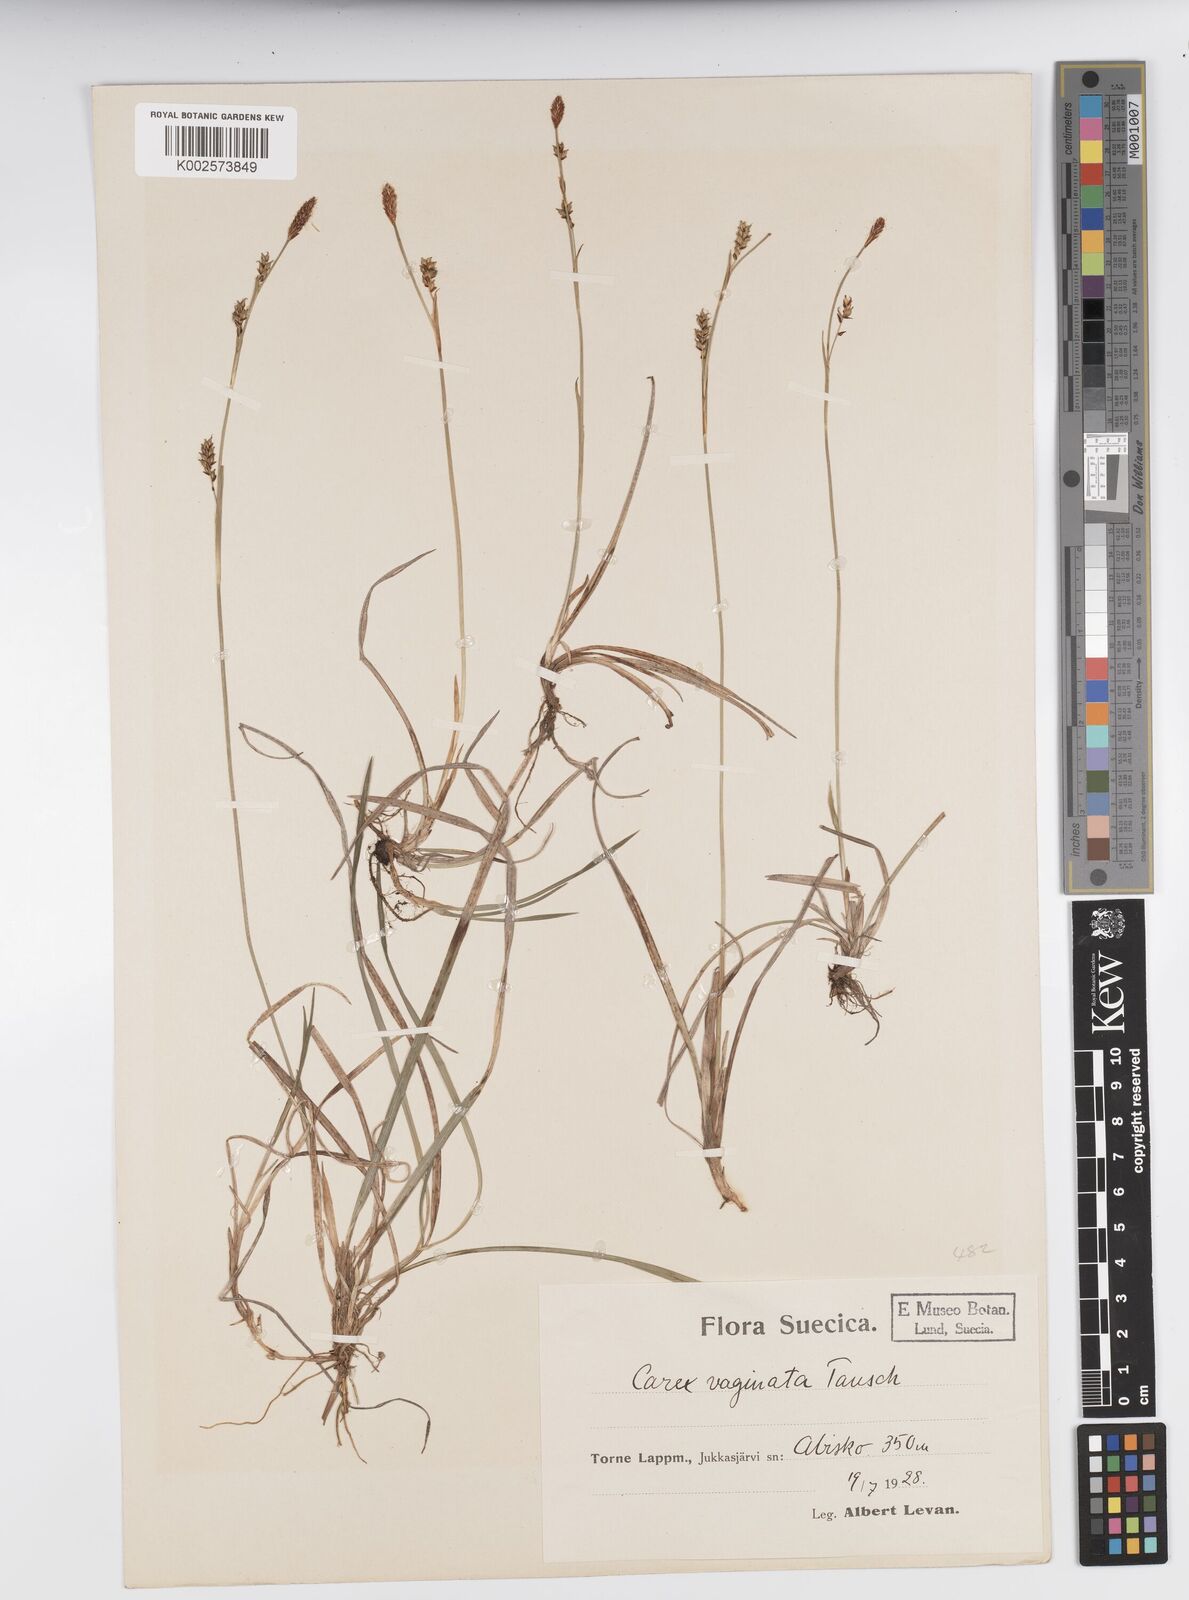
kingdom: Plantae
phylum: Tracheophyta
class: Liliopsida
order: Poales
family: Cyperaceae
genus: Carex
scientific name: Carex vaginata
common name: Sheathed sedge
